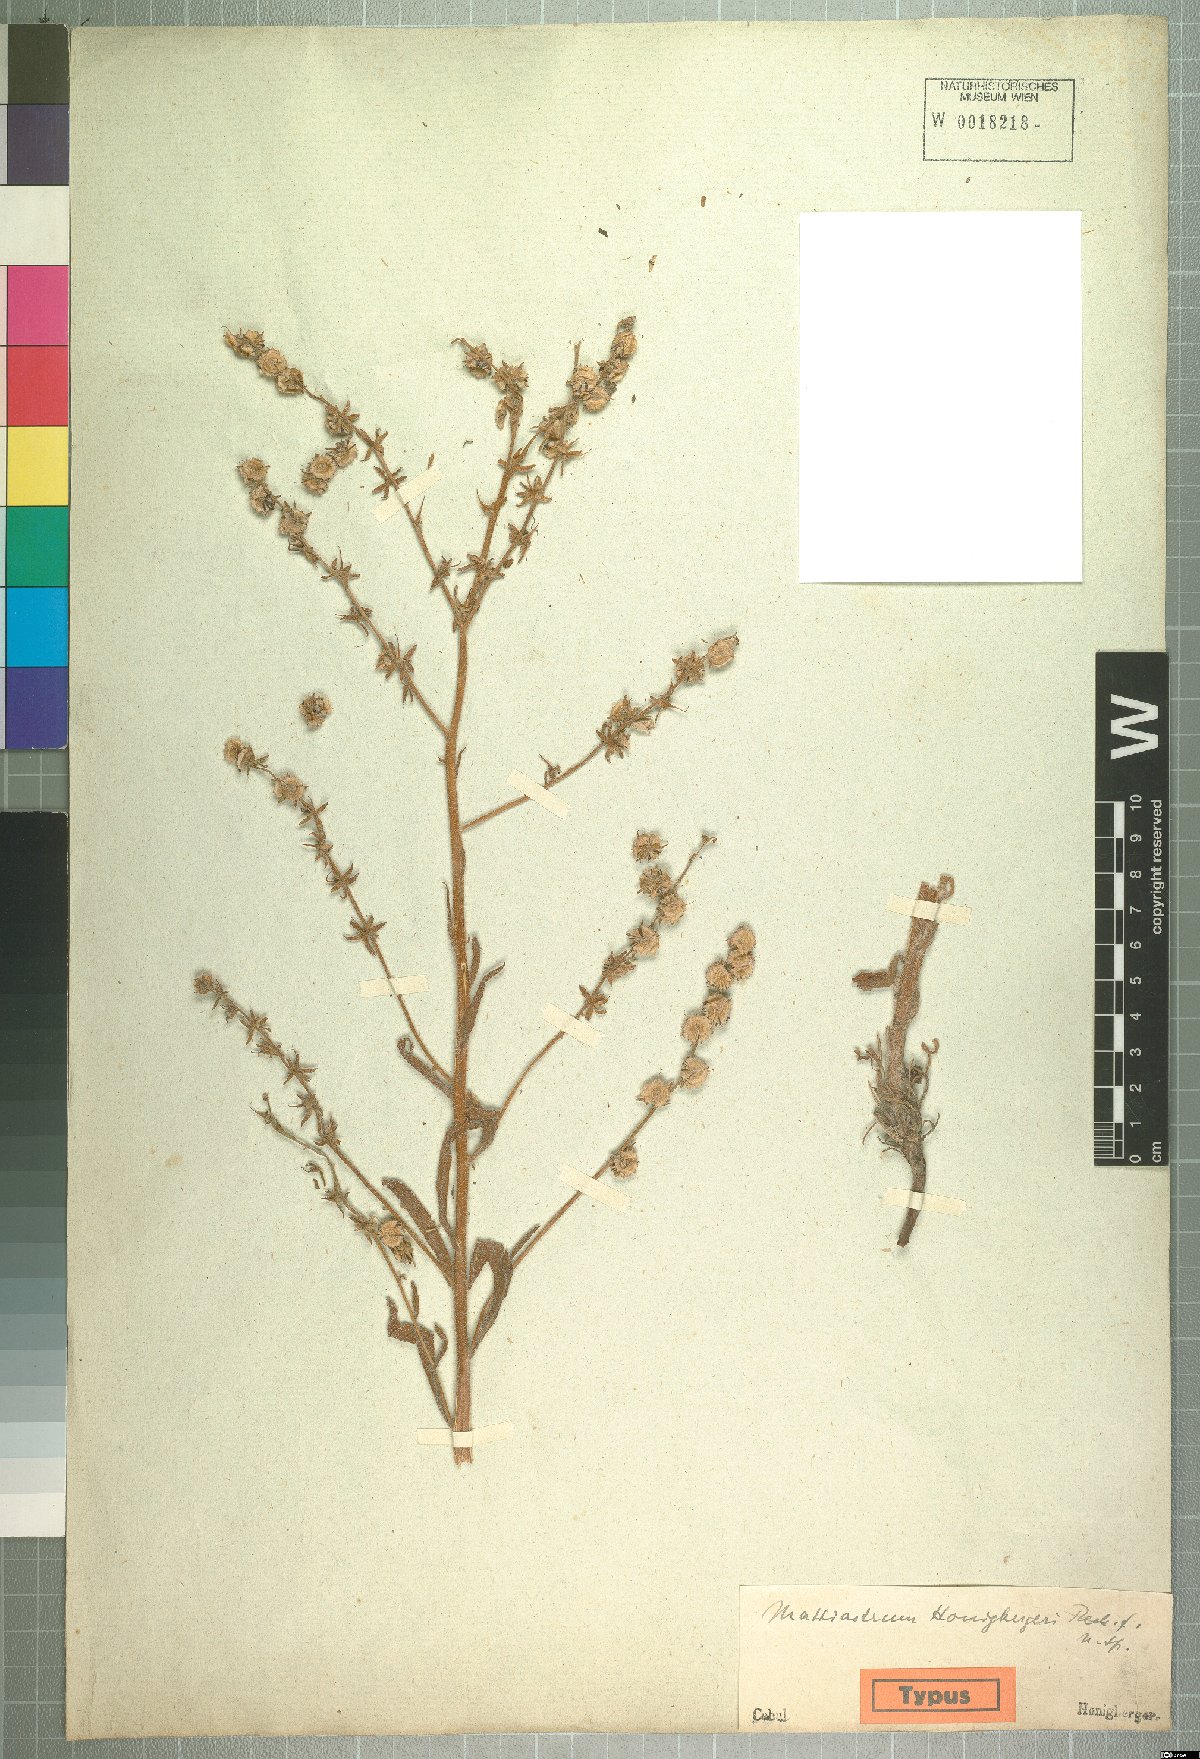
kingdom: Plantae
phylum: Tracheophyta
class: Magnoliopsida
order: Boraginales
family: Boraginaceae
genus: Paracaryum
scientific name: Paracaryum asperum
